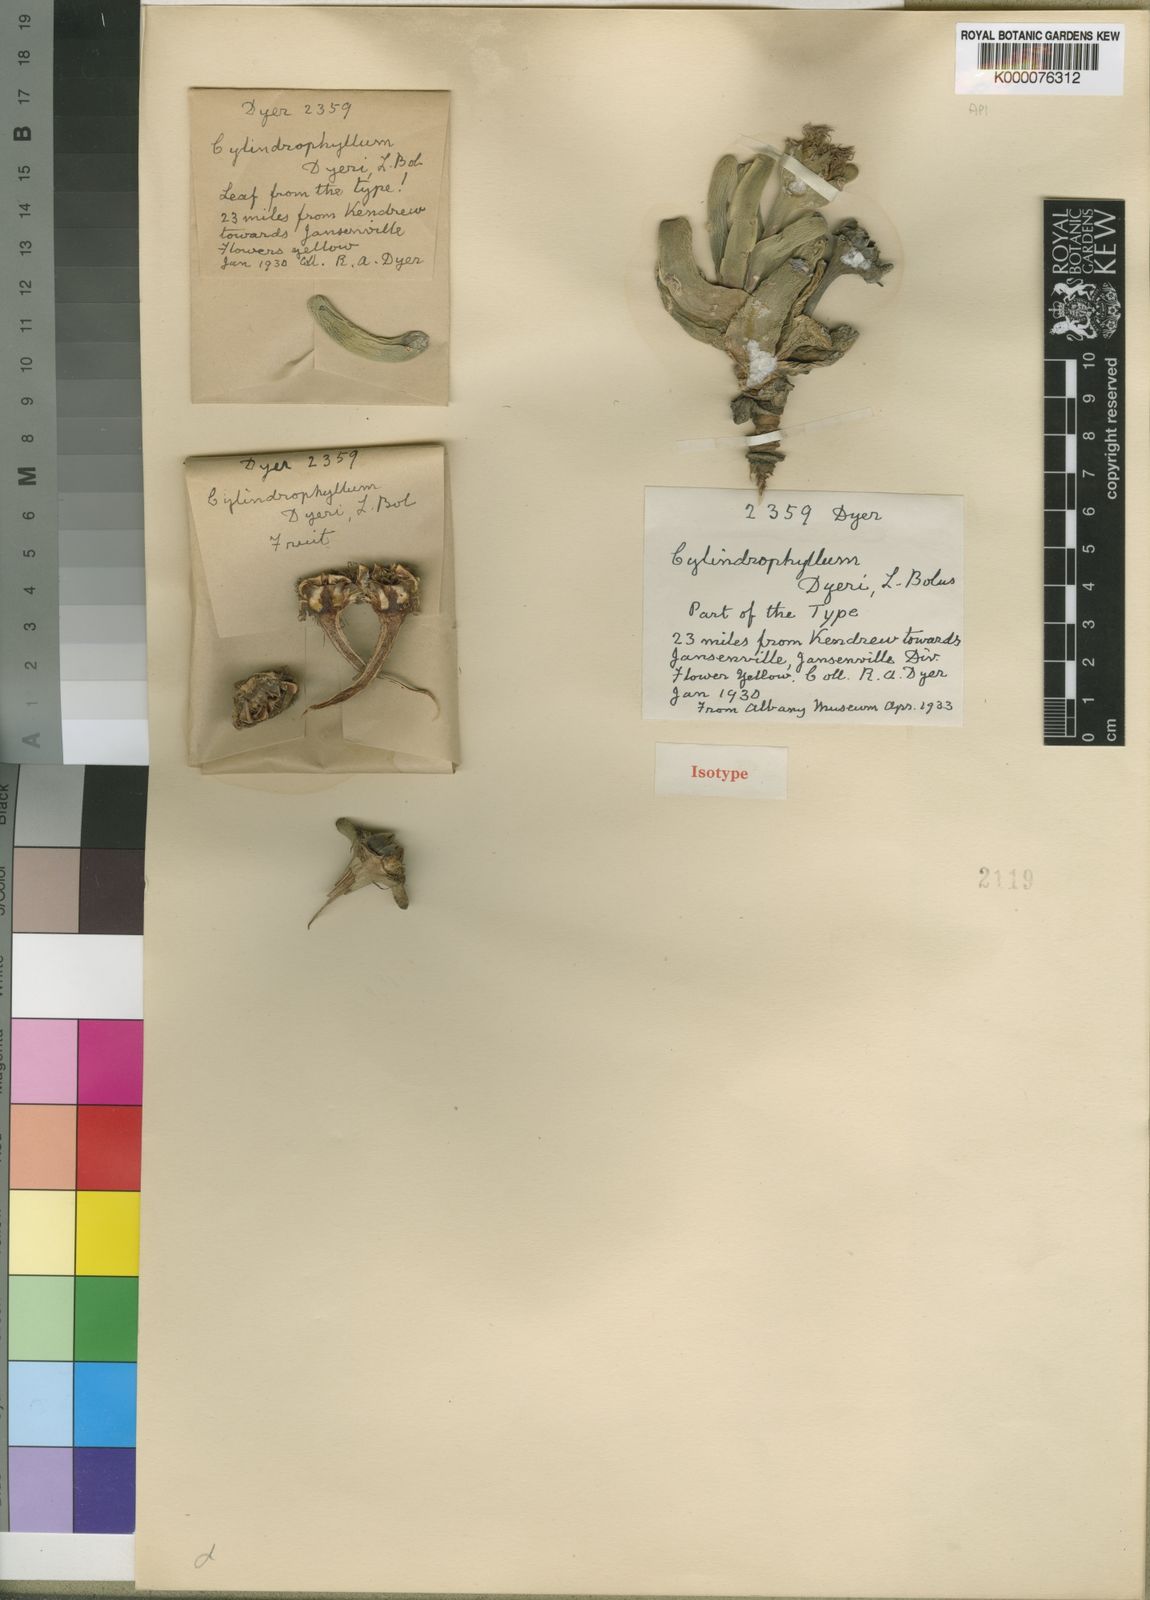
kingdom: Plantae
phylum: Tracheophyta
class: Magnoliopsida
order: Caryophyllales
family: Aizoaceae
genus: Cylindrophyllum
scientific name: Cylindrophyllum calamiforme
